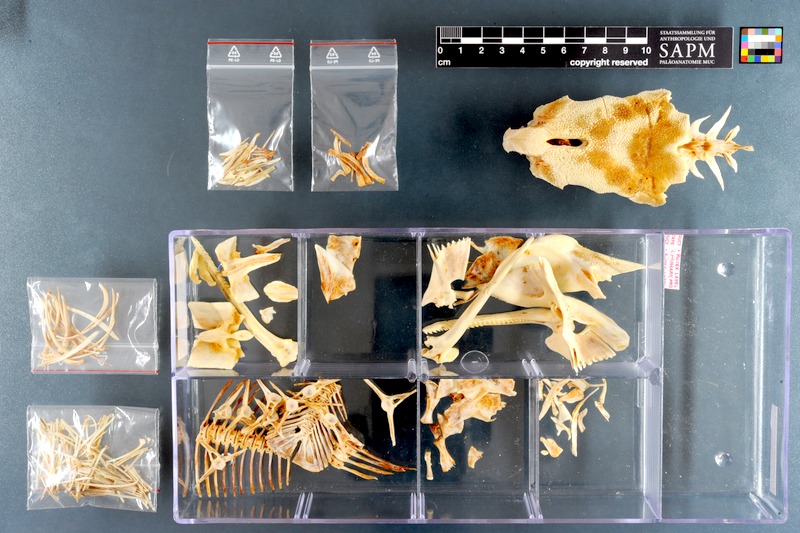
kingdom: Animalia
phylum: Chordata
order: Siluriformes
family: Mochokidae
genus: Synodontis
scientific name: Synodontis frontosus
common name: Sudan squeaker
